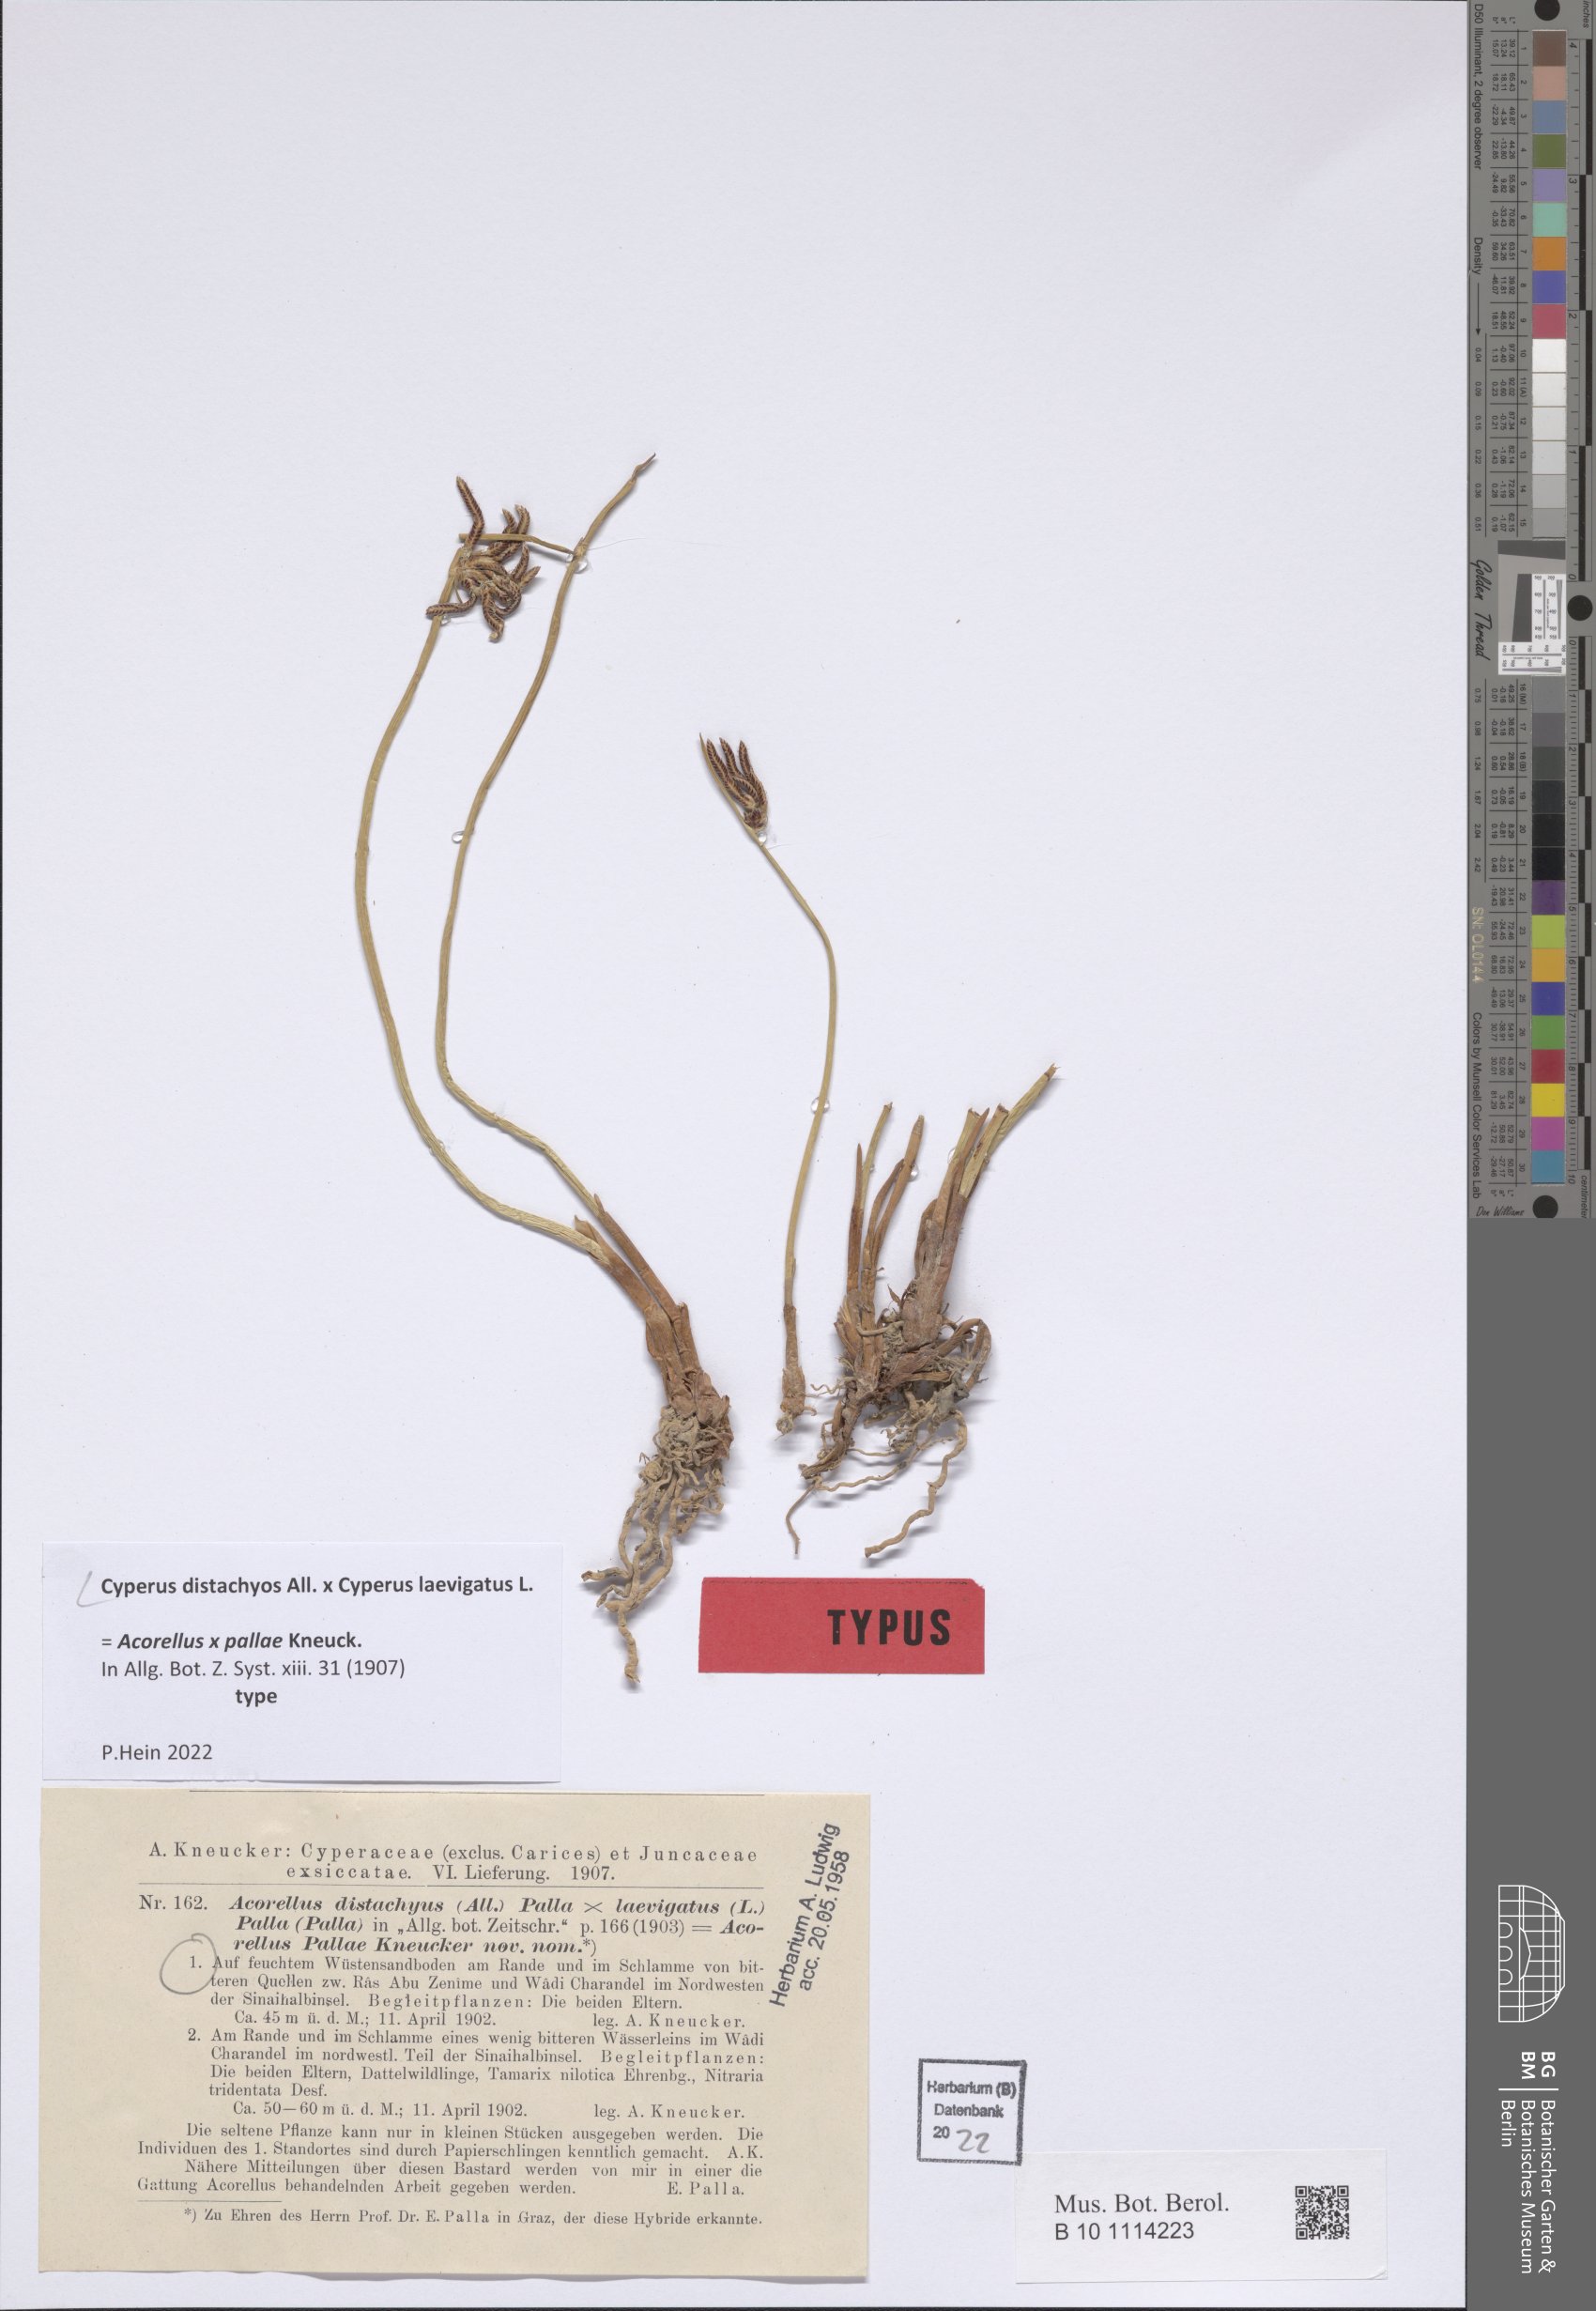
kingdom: Plantae
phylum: Tracheophyta
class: Liliopsida
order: Poales
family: Cyperaceae
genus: Cyperus
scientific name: Cyperus laevigatus
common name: Smooth flat sedge
